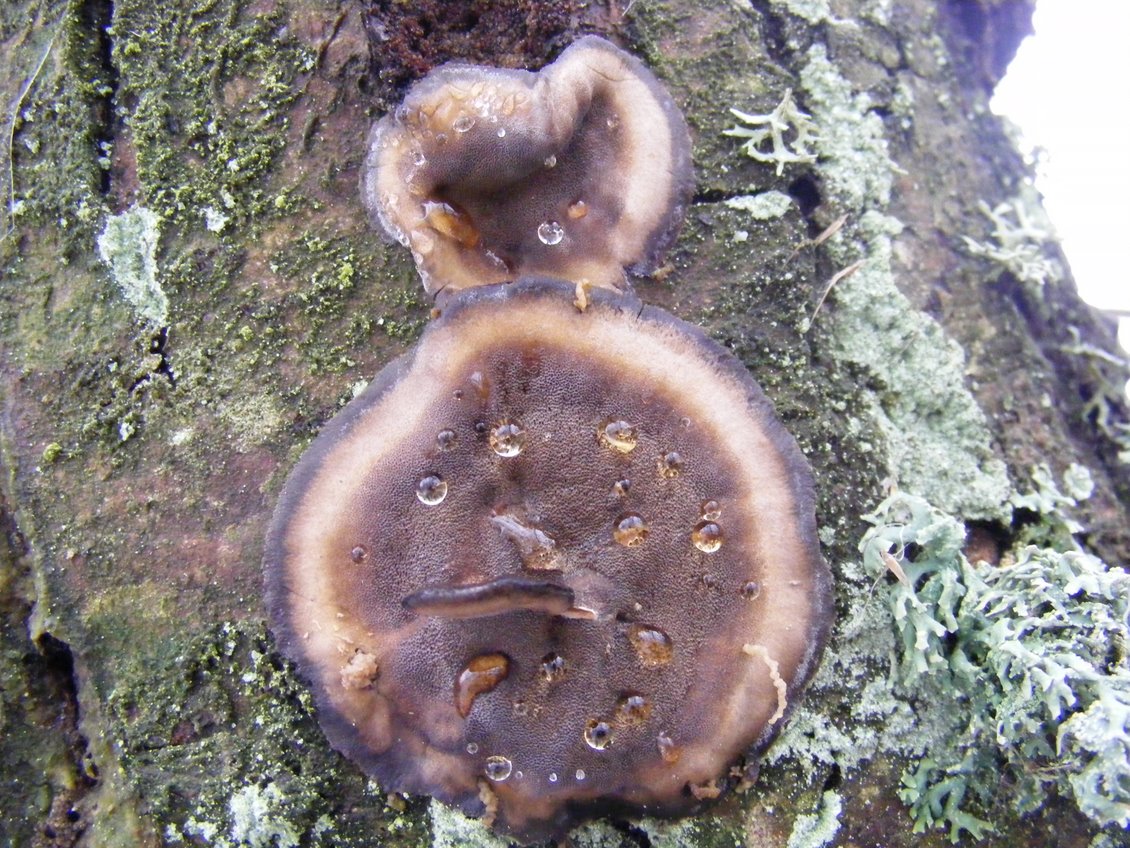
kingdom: Fungi
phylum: Basidiomycota
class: Agaricomycetes
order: Polyporales
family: Phanerochaetaceae
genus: Bjerkandera
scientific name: Bjerkandera adusta
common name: sveden sodporesvamp
